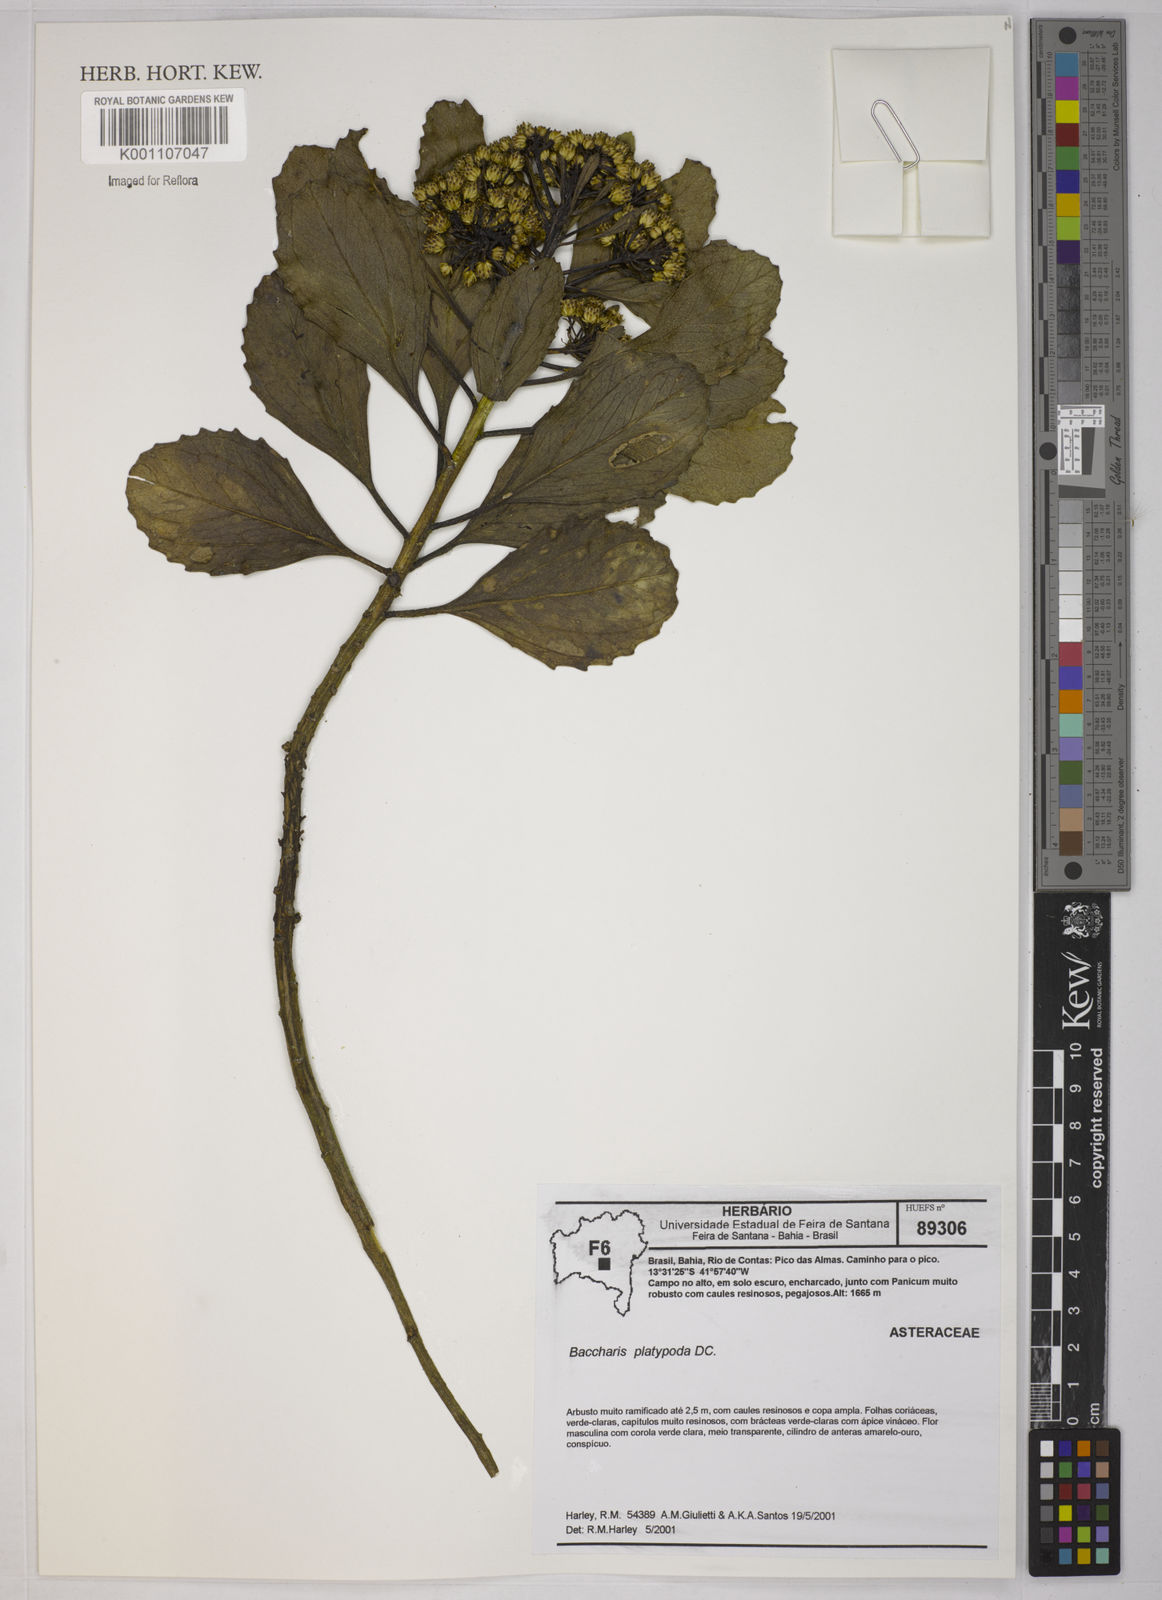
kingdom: Plantae
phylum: Tracheophyta
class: Magnoliopsida
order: Asterales
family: Asteraceae
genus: Baccharis
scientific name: Baccharis platypoda
